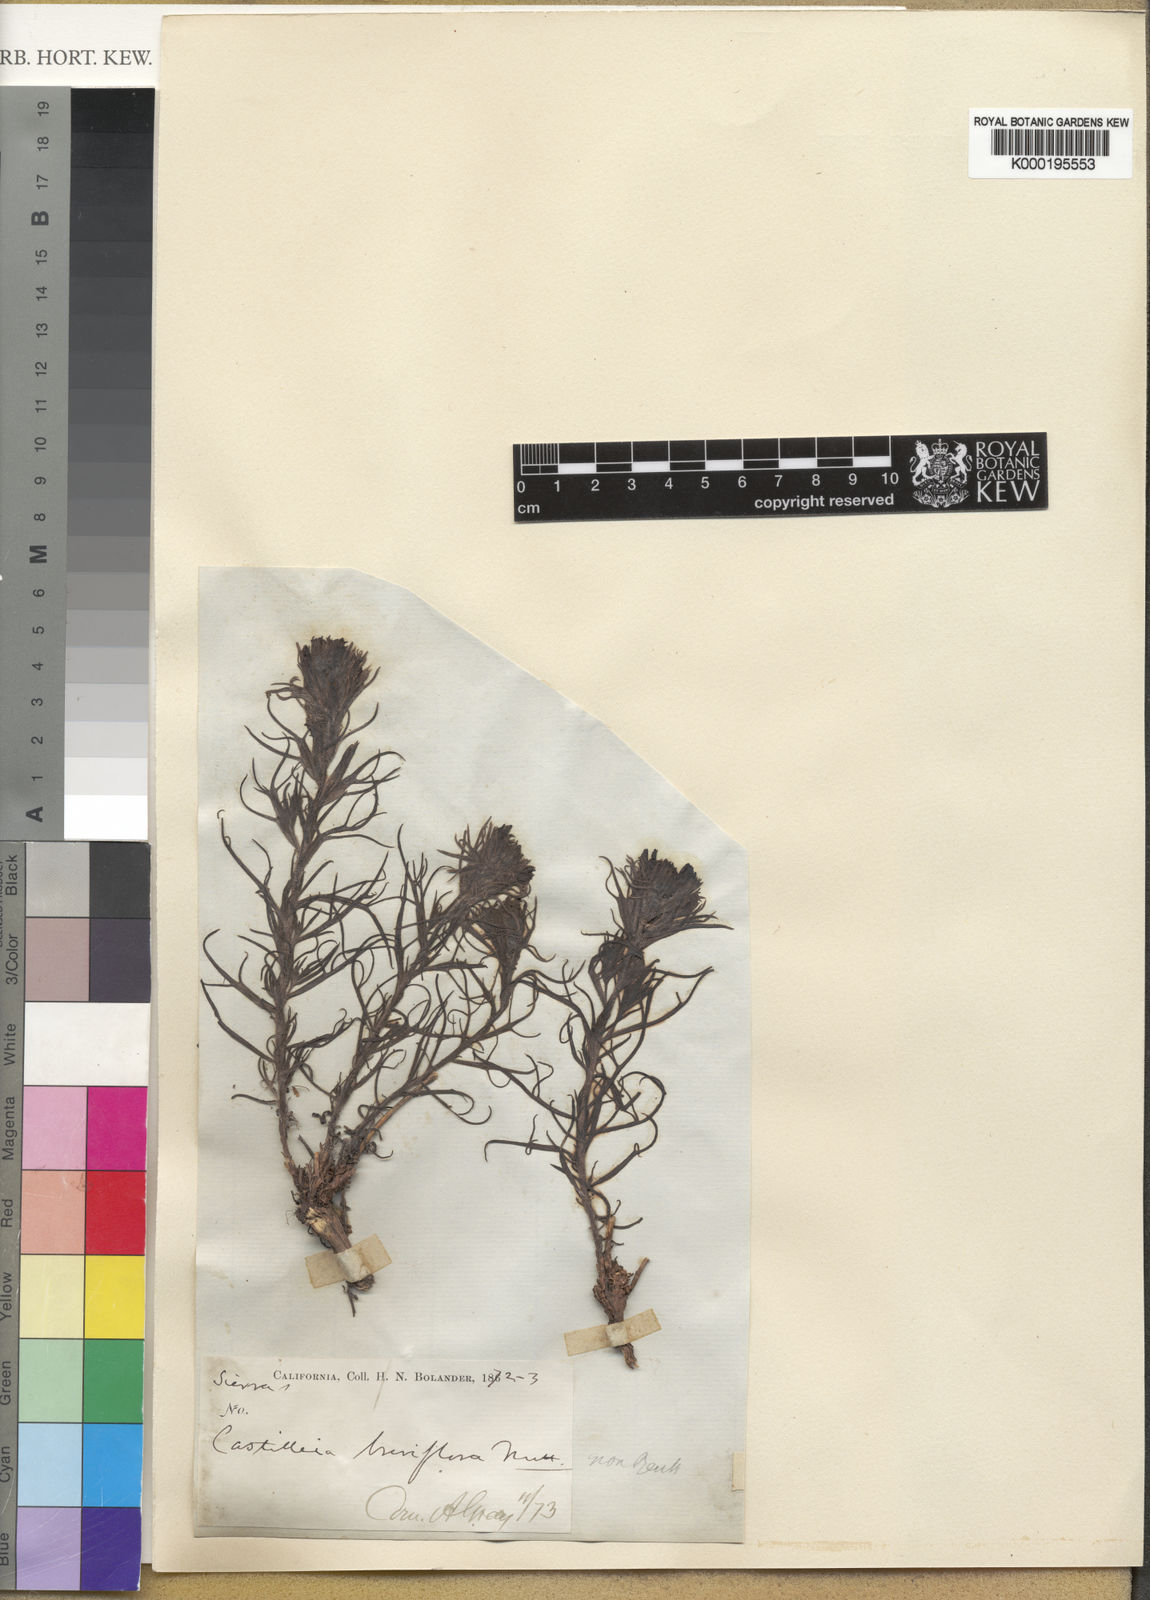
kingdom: Plantae
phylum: Tracheophyta
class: Magnoliopsida
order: Lamiales
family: Orobanchaceae
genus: Castilleja
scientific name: Castilleja nana
